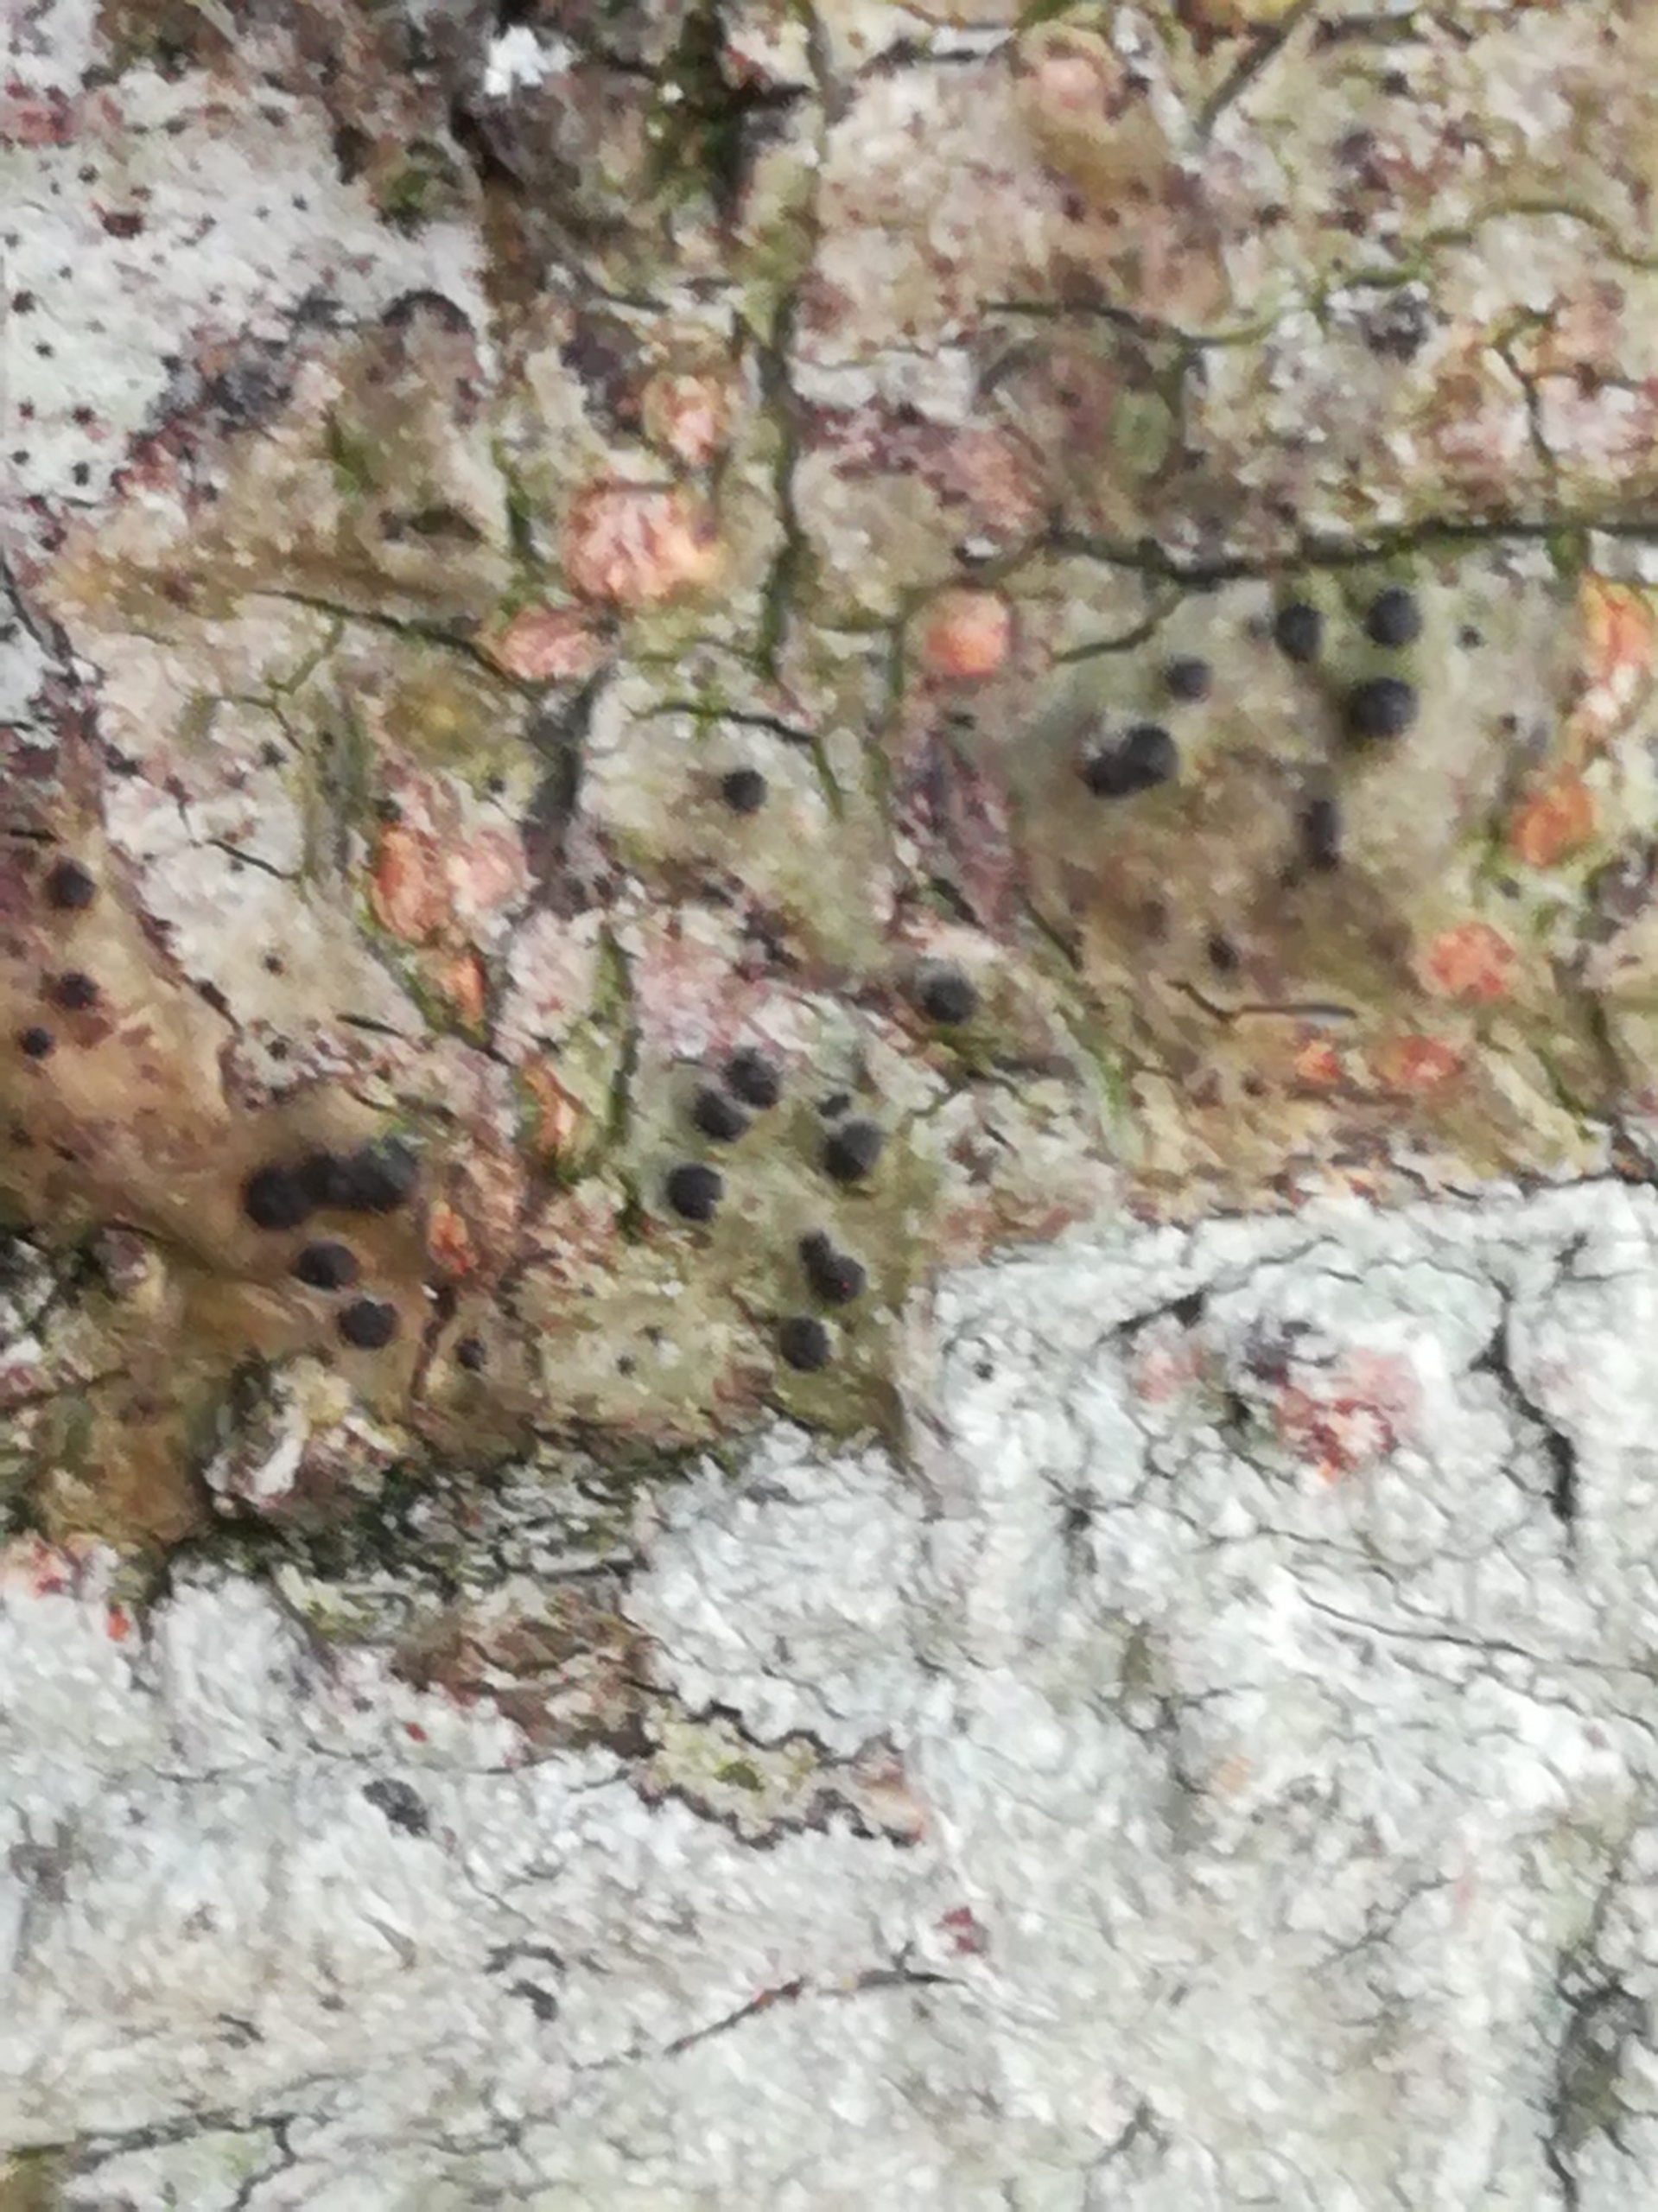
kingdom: Fungi
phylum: Ascomycota
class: Eurotiomycetes
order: Pyrenulales
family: Pyrenulaceae
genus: Pyrenula
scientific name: Pyrenula nitida
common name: Glinsende kernelav
